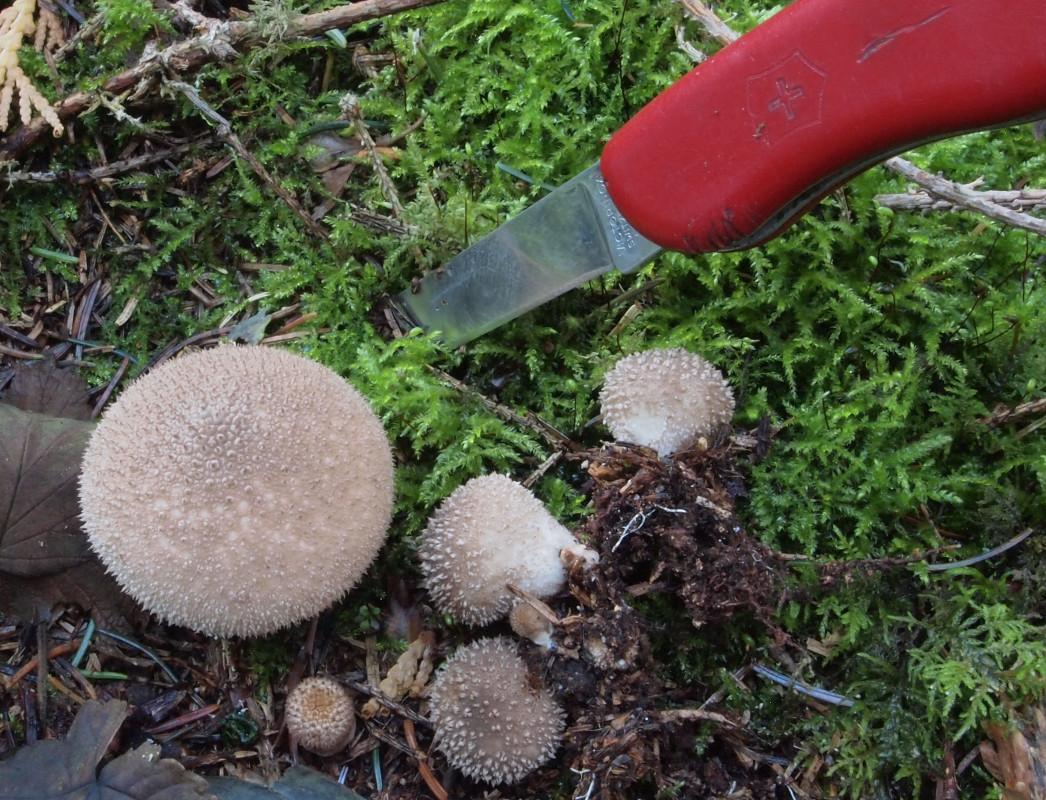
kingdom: Fungi
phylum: Basidiomycota
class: Agaricomycetes
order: Agaricales
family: Lycoperdaceae
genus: Lycoperdon
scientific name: Lycoperdon perlatum
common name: krystal-støvbold
